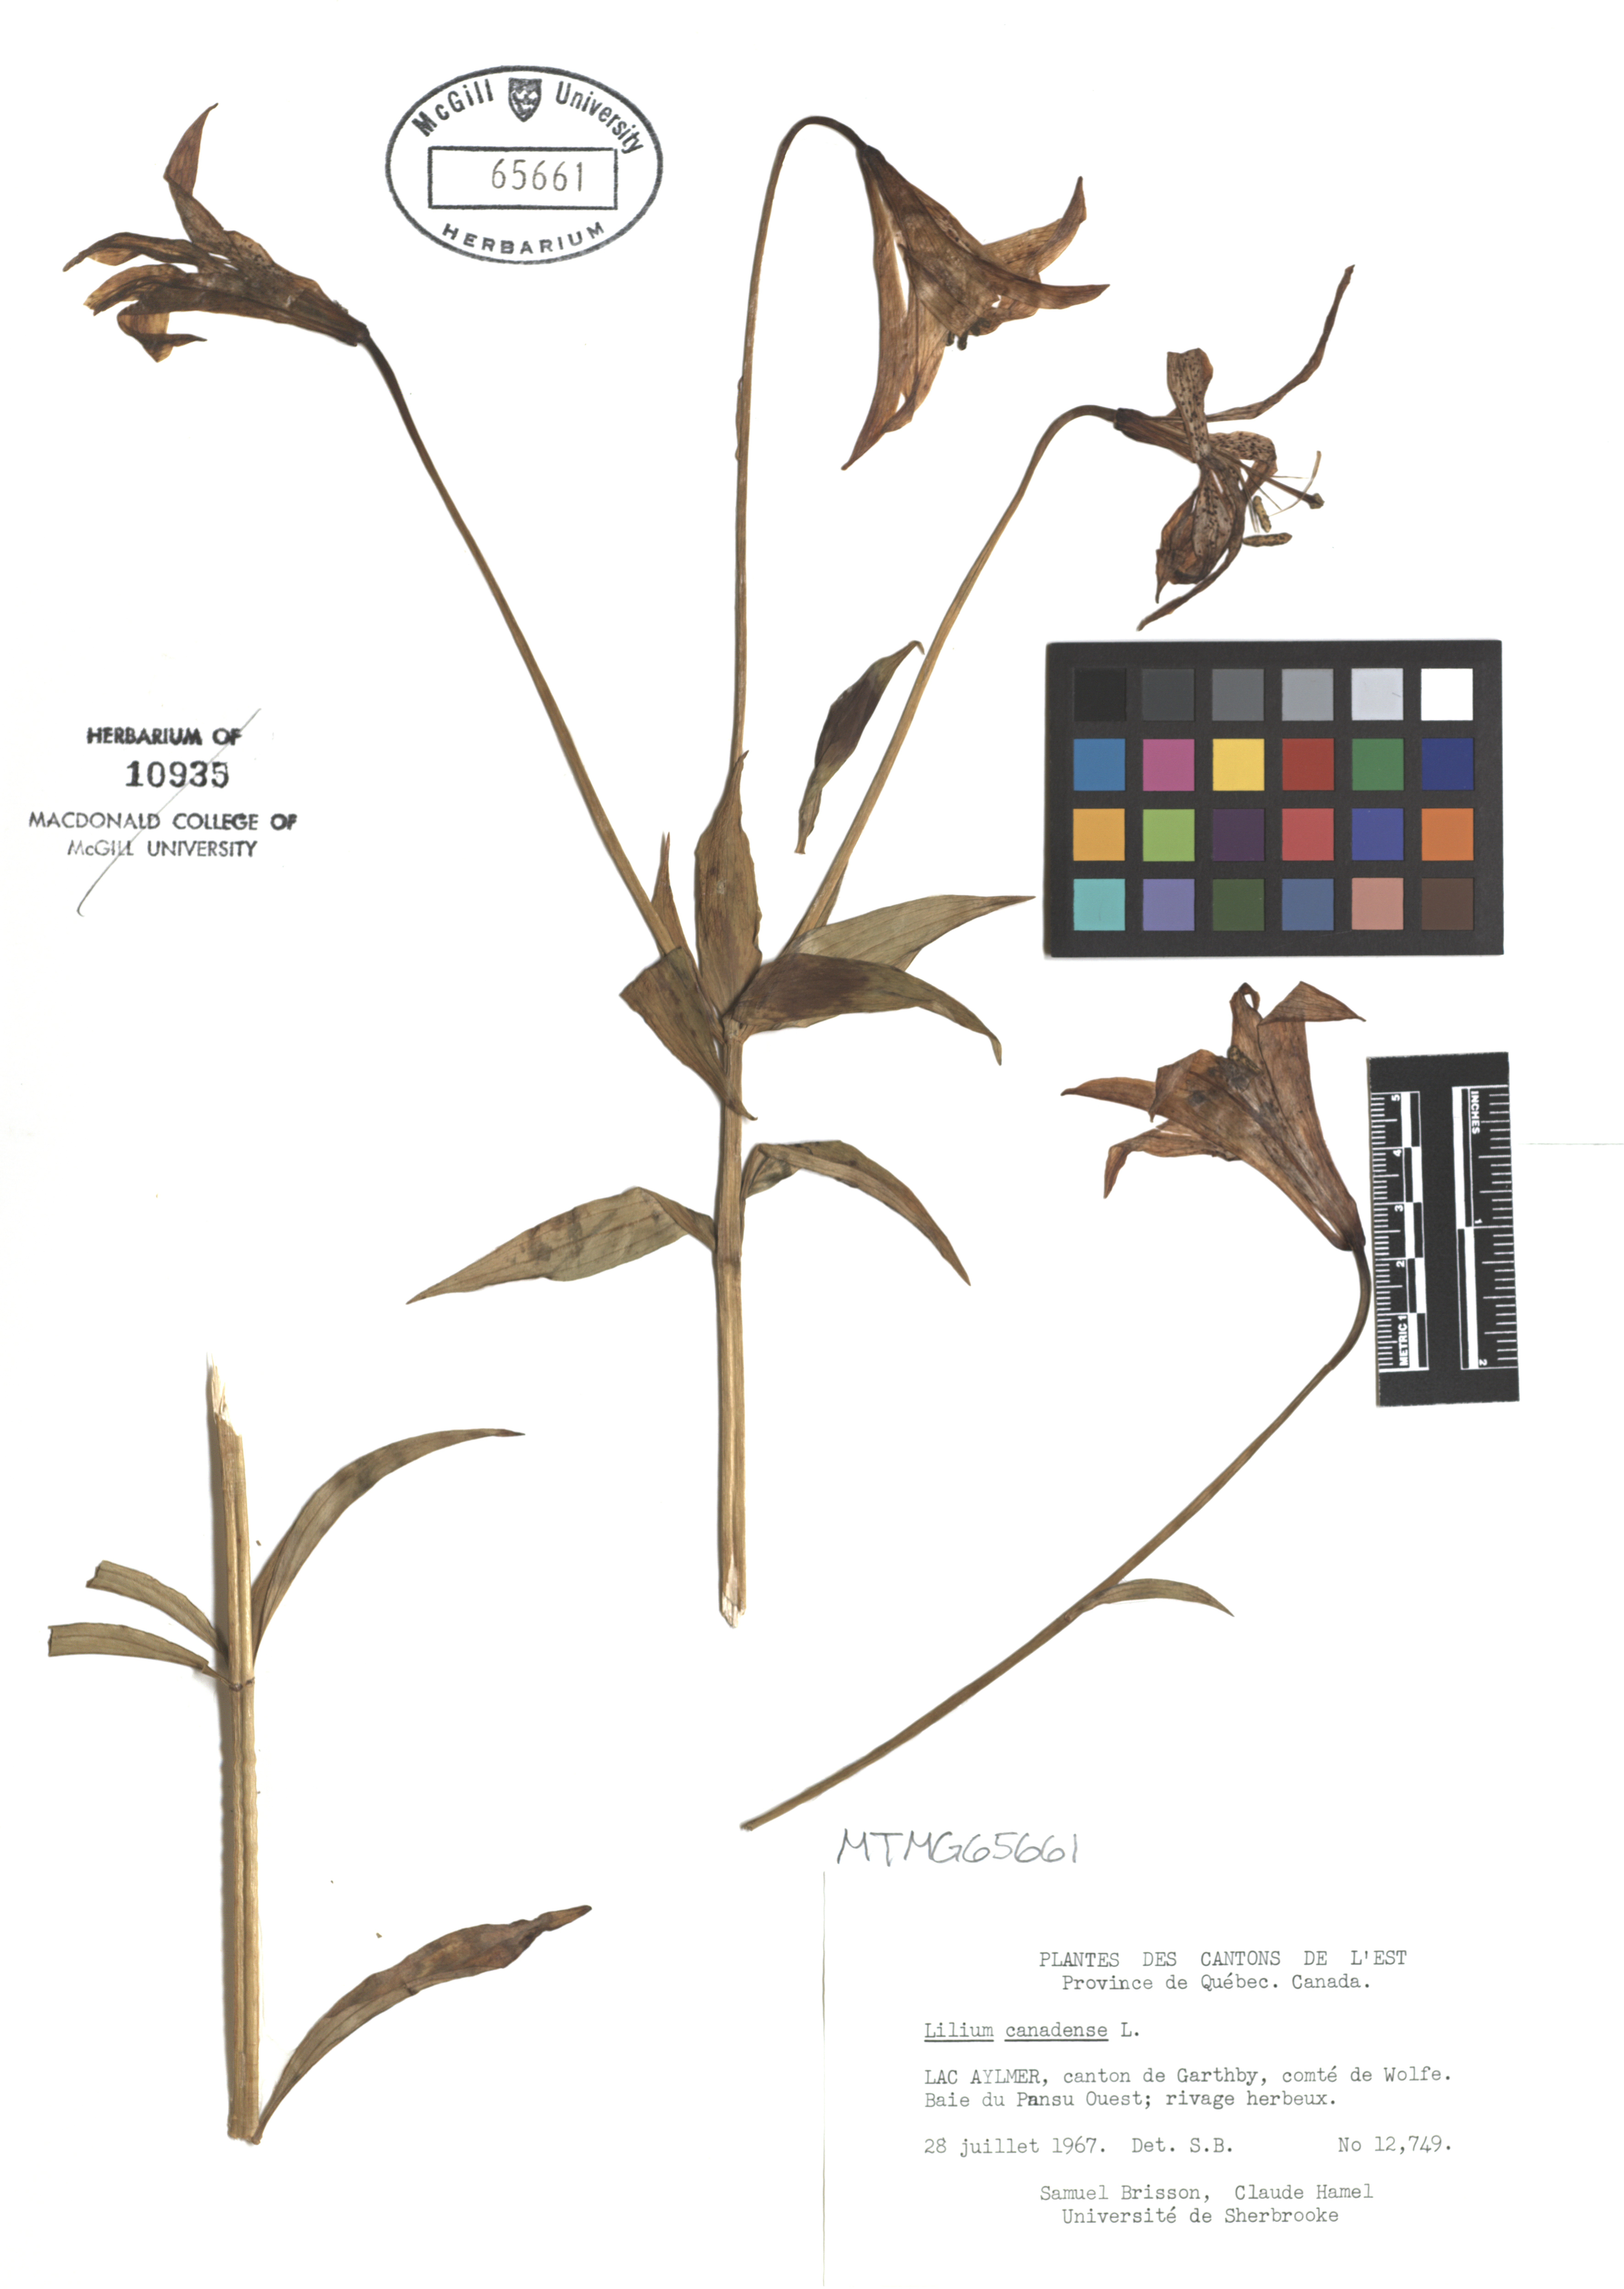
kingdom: Plantae
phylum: Tracheophyta
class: Liliopsida
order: Liliales
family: Liliaceae
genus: Lilium
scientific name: Lilium canadense
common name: Canada lily
